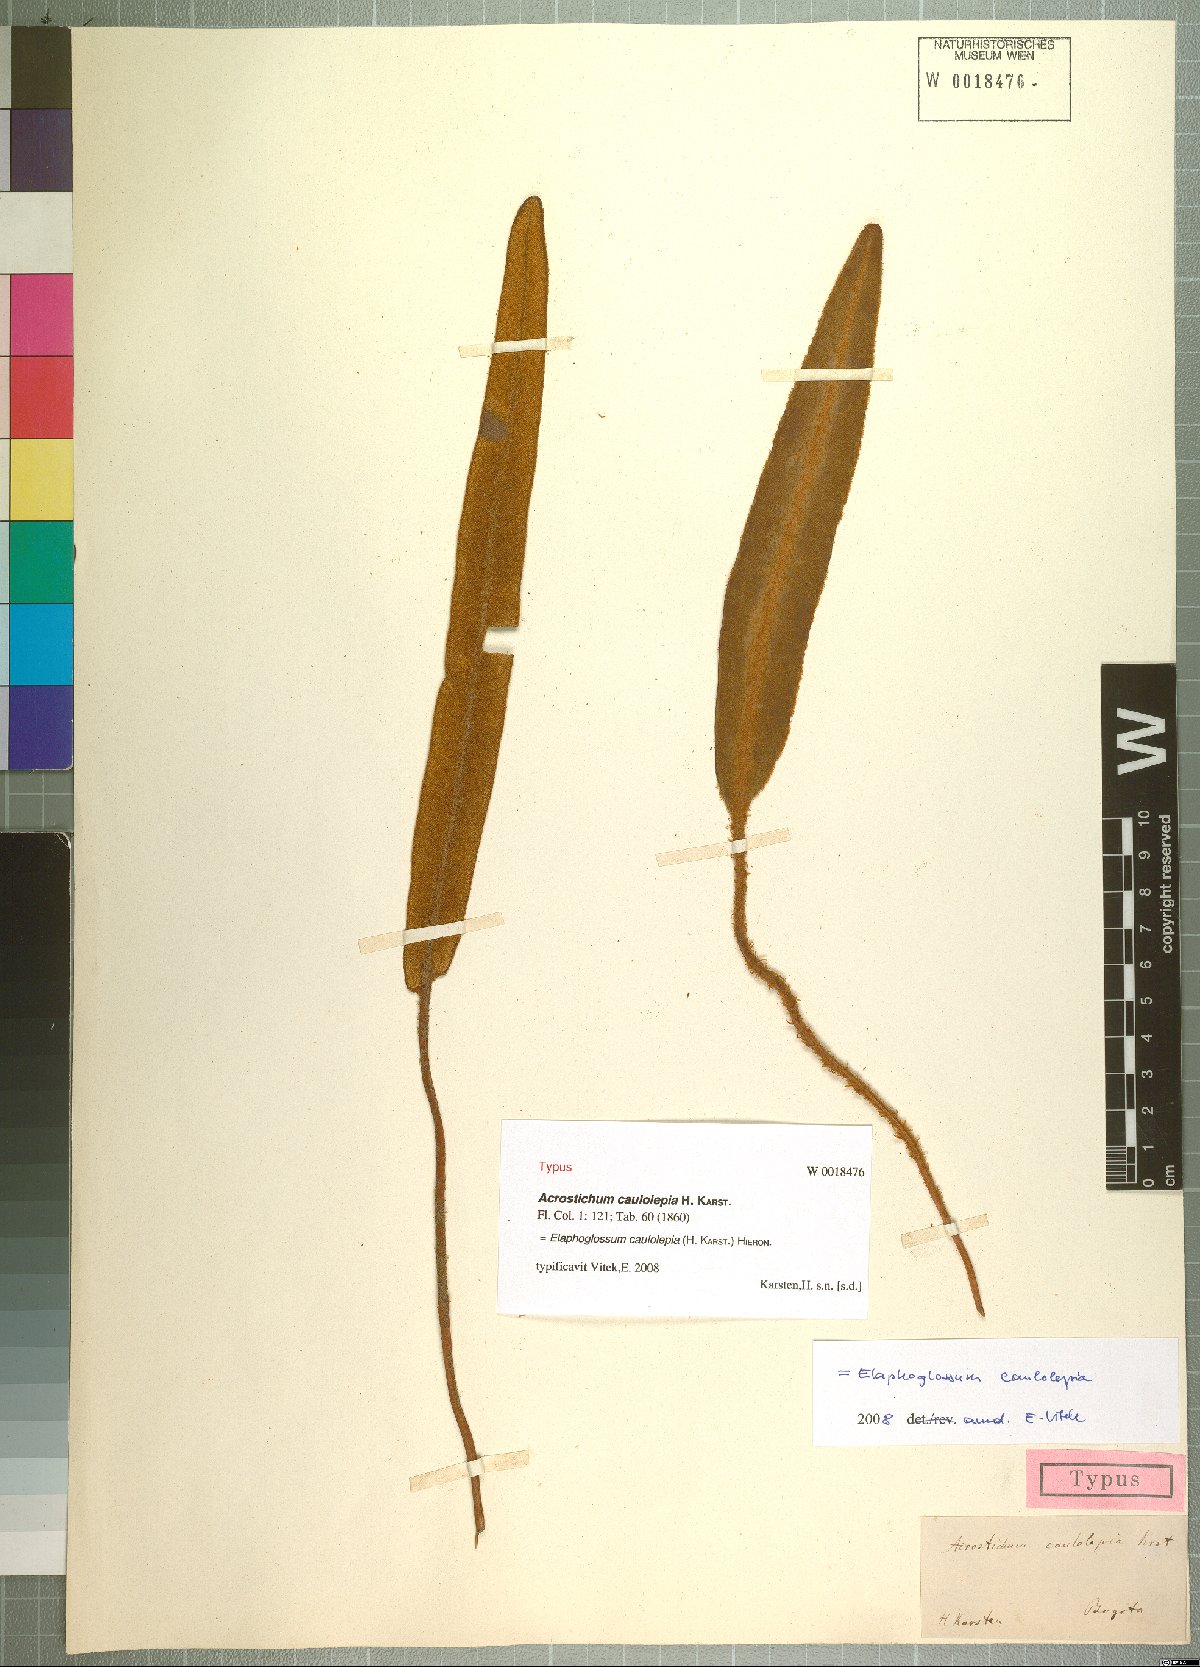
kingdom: Plantae
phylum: Tracheophyta
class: Polypodiopsida
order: Polypodiales
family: Dryopteridaceae
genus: Elaphoglossum
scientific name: Elaphoglossum engelii
